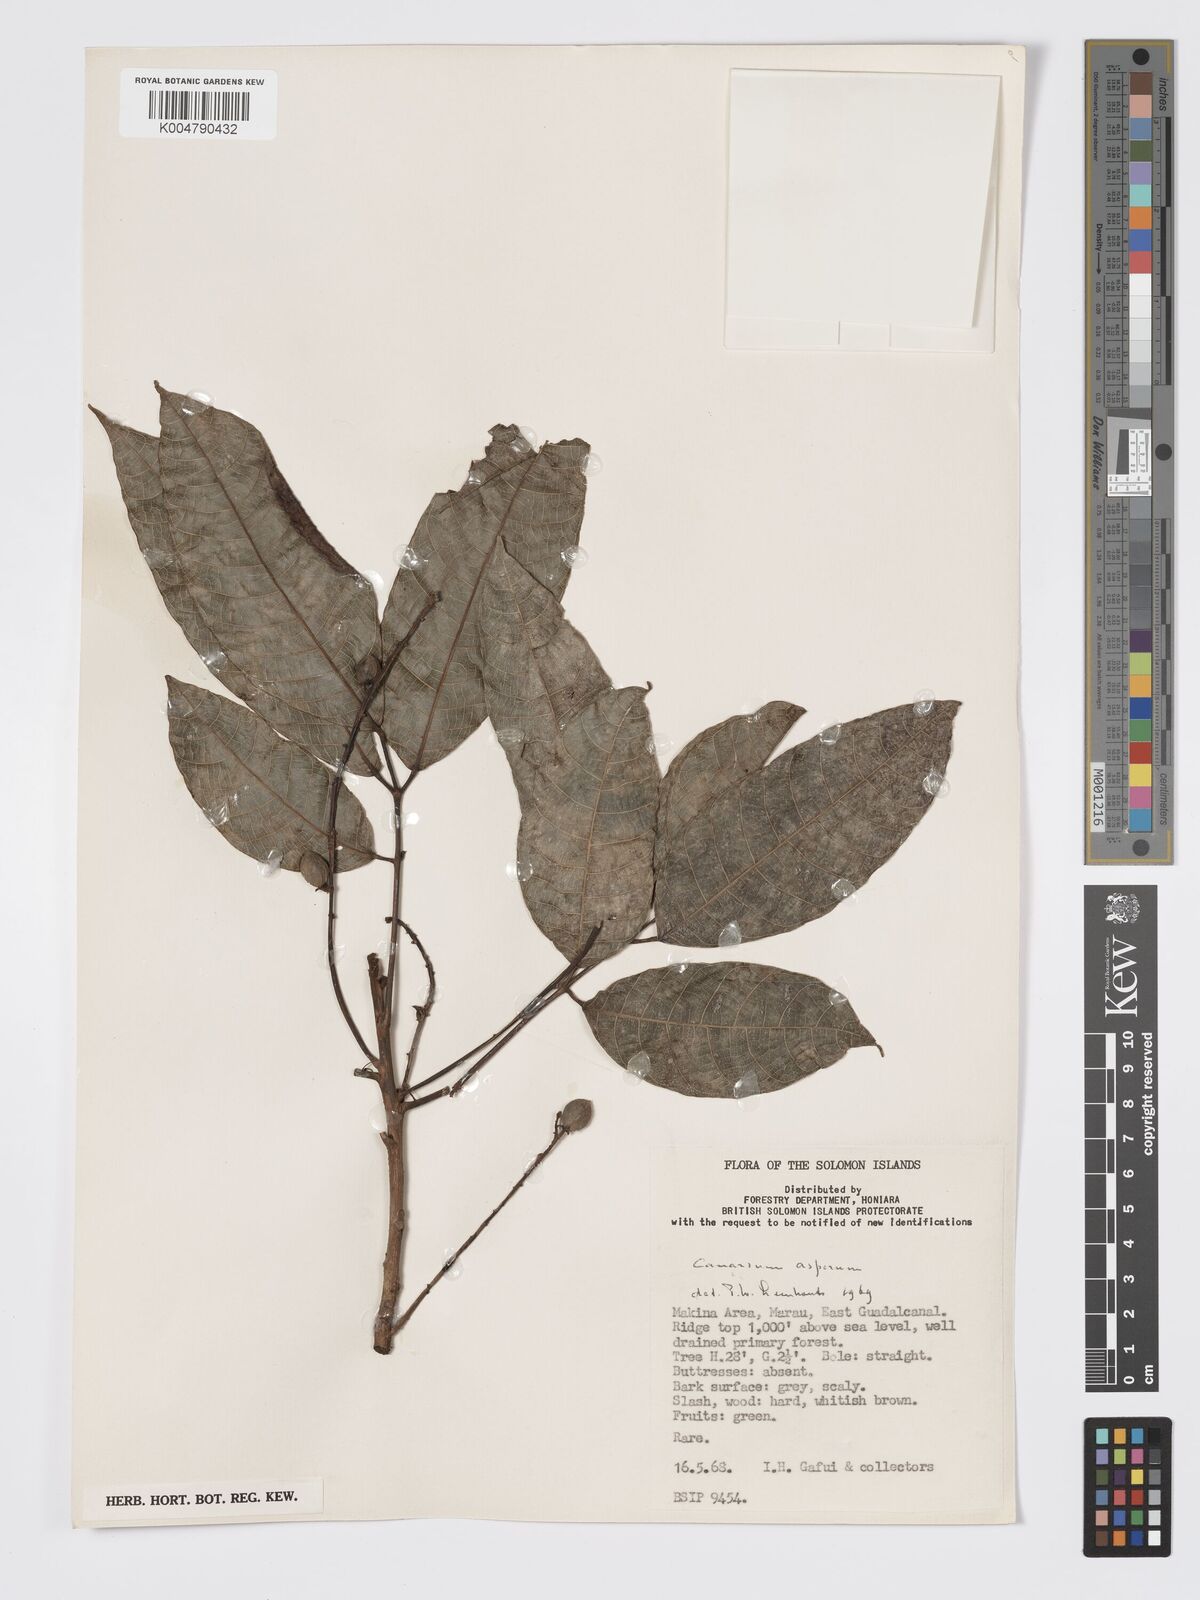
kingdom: Plantae
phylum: Tracheophyta
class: Magnoliopsida
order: Sapindales
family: Burseraceae
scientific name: Burseraceae
